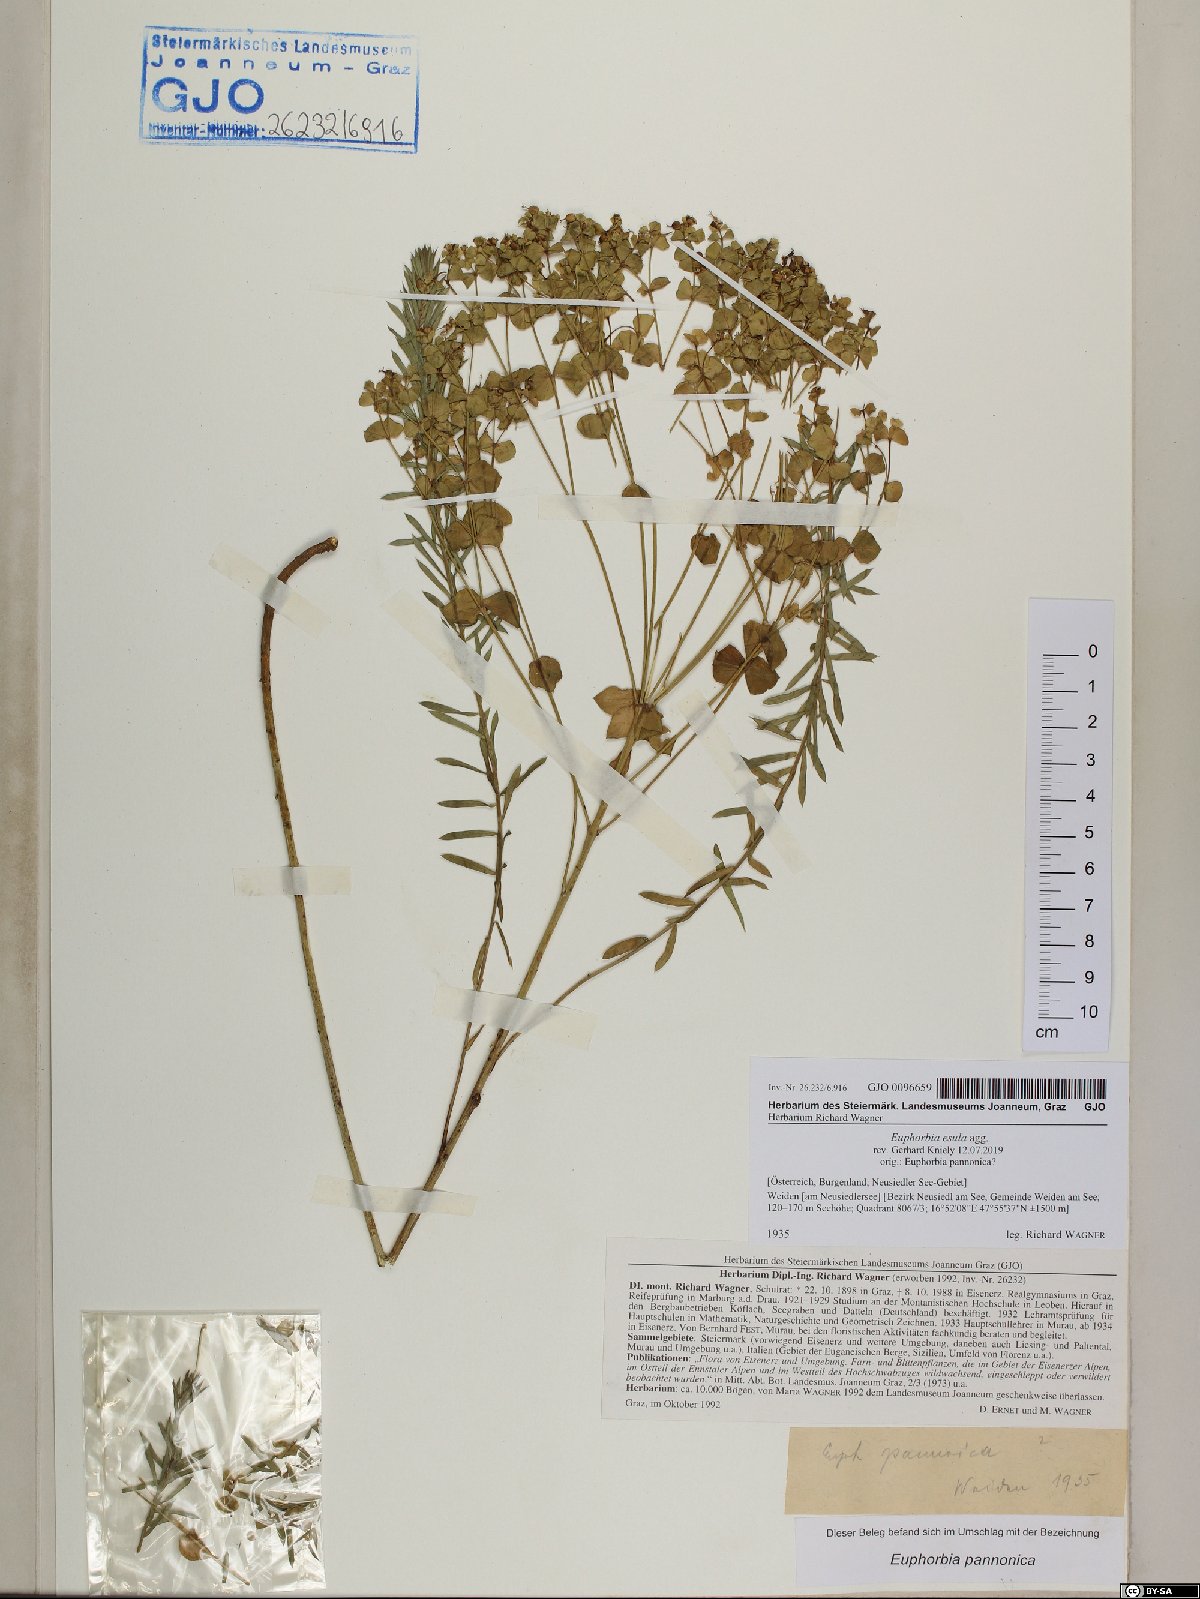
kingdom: Plantae
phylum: Tracheophyta
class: Magnoliopsida
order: Malpighiales
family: Euphorbiaceae
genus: Euphorbia
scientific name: Euphorbia esula
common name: Leafy spurge
